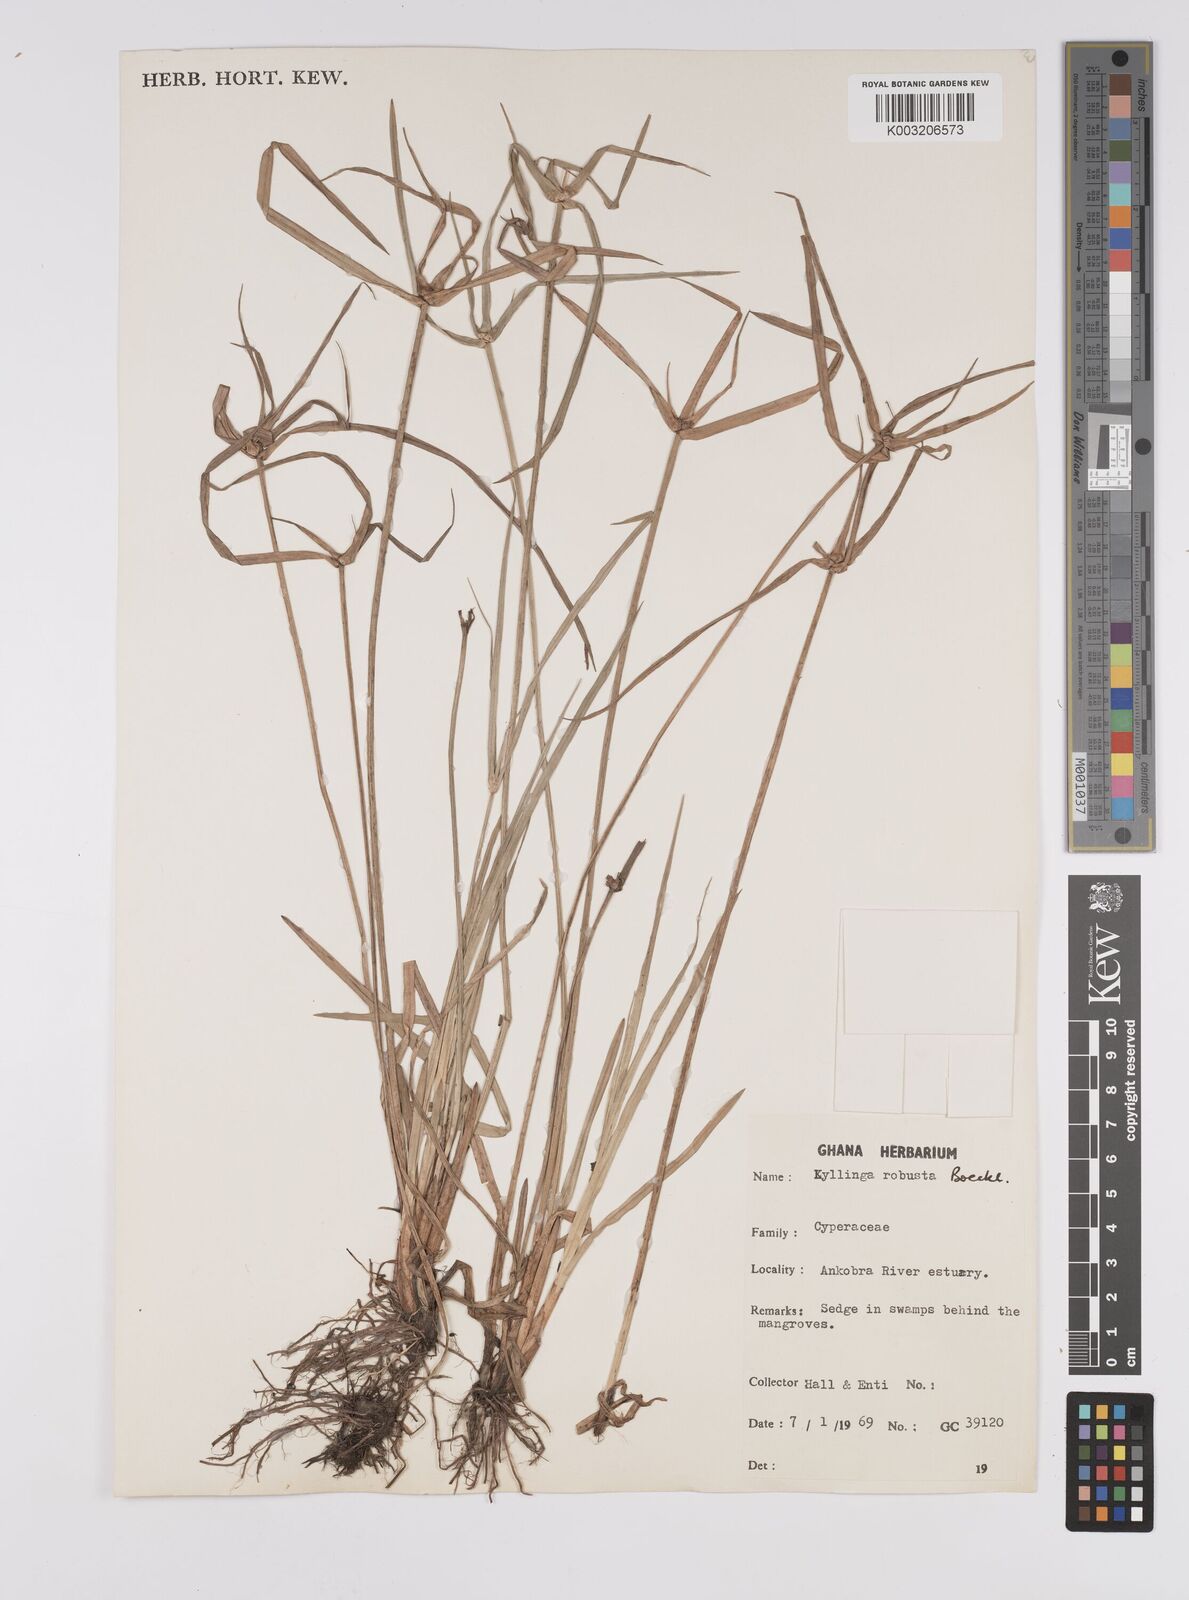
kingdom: Plantae
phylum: Tracheophyta
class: Liliopsida
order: Poales
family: Cyperaceae
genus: Cyperus
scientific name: Cyperus
